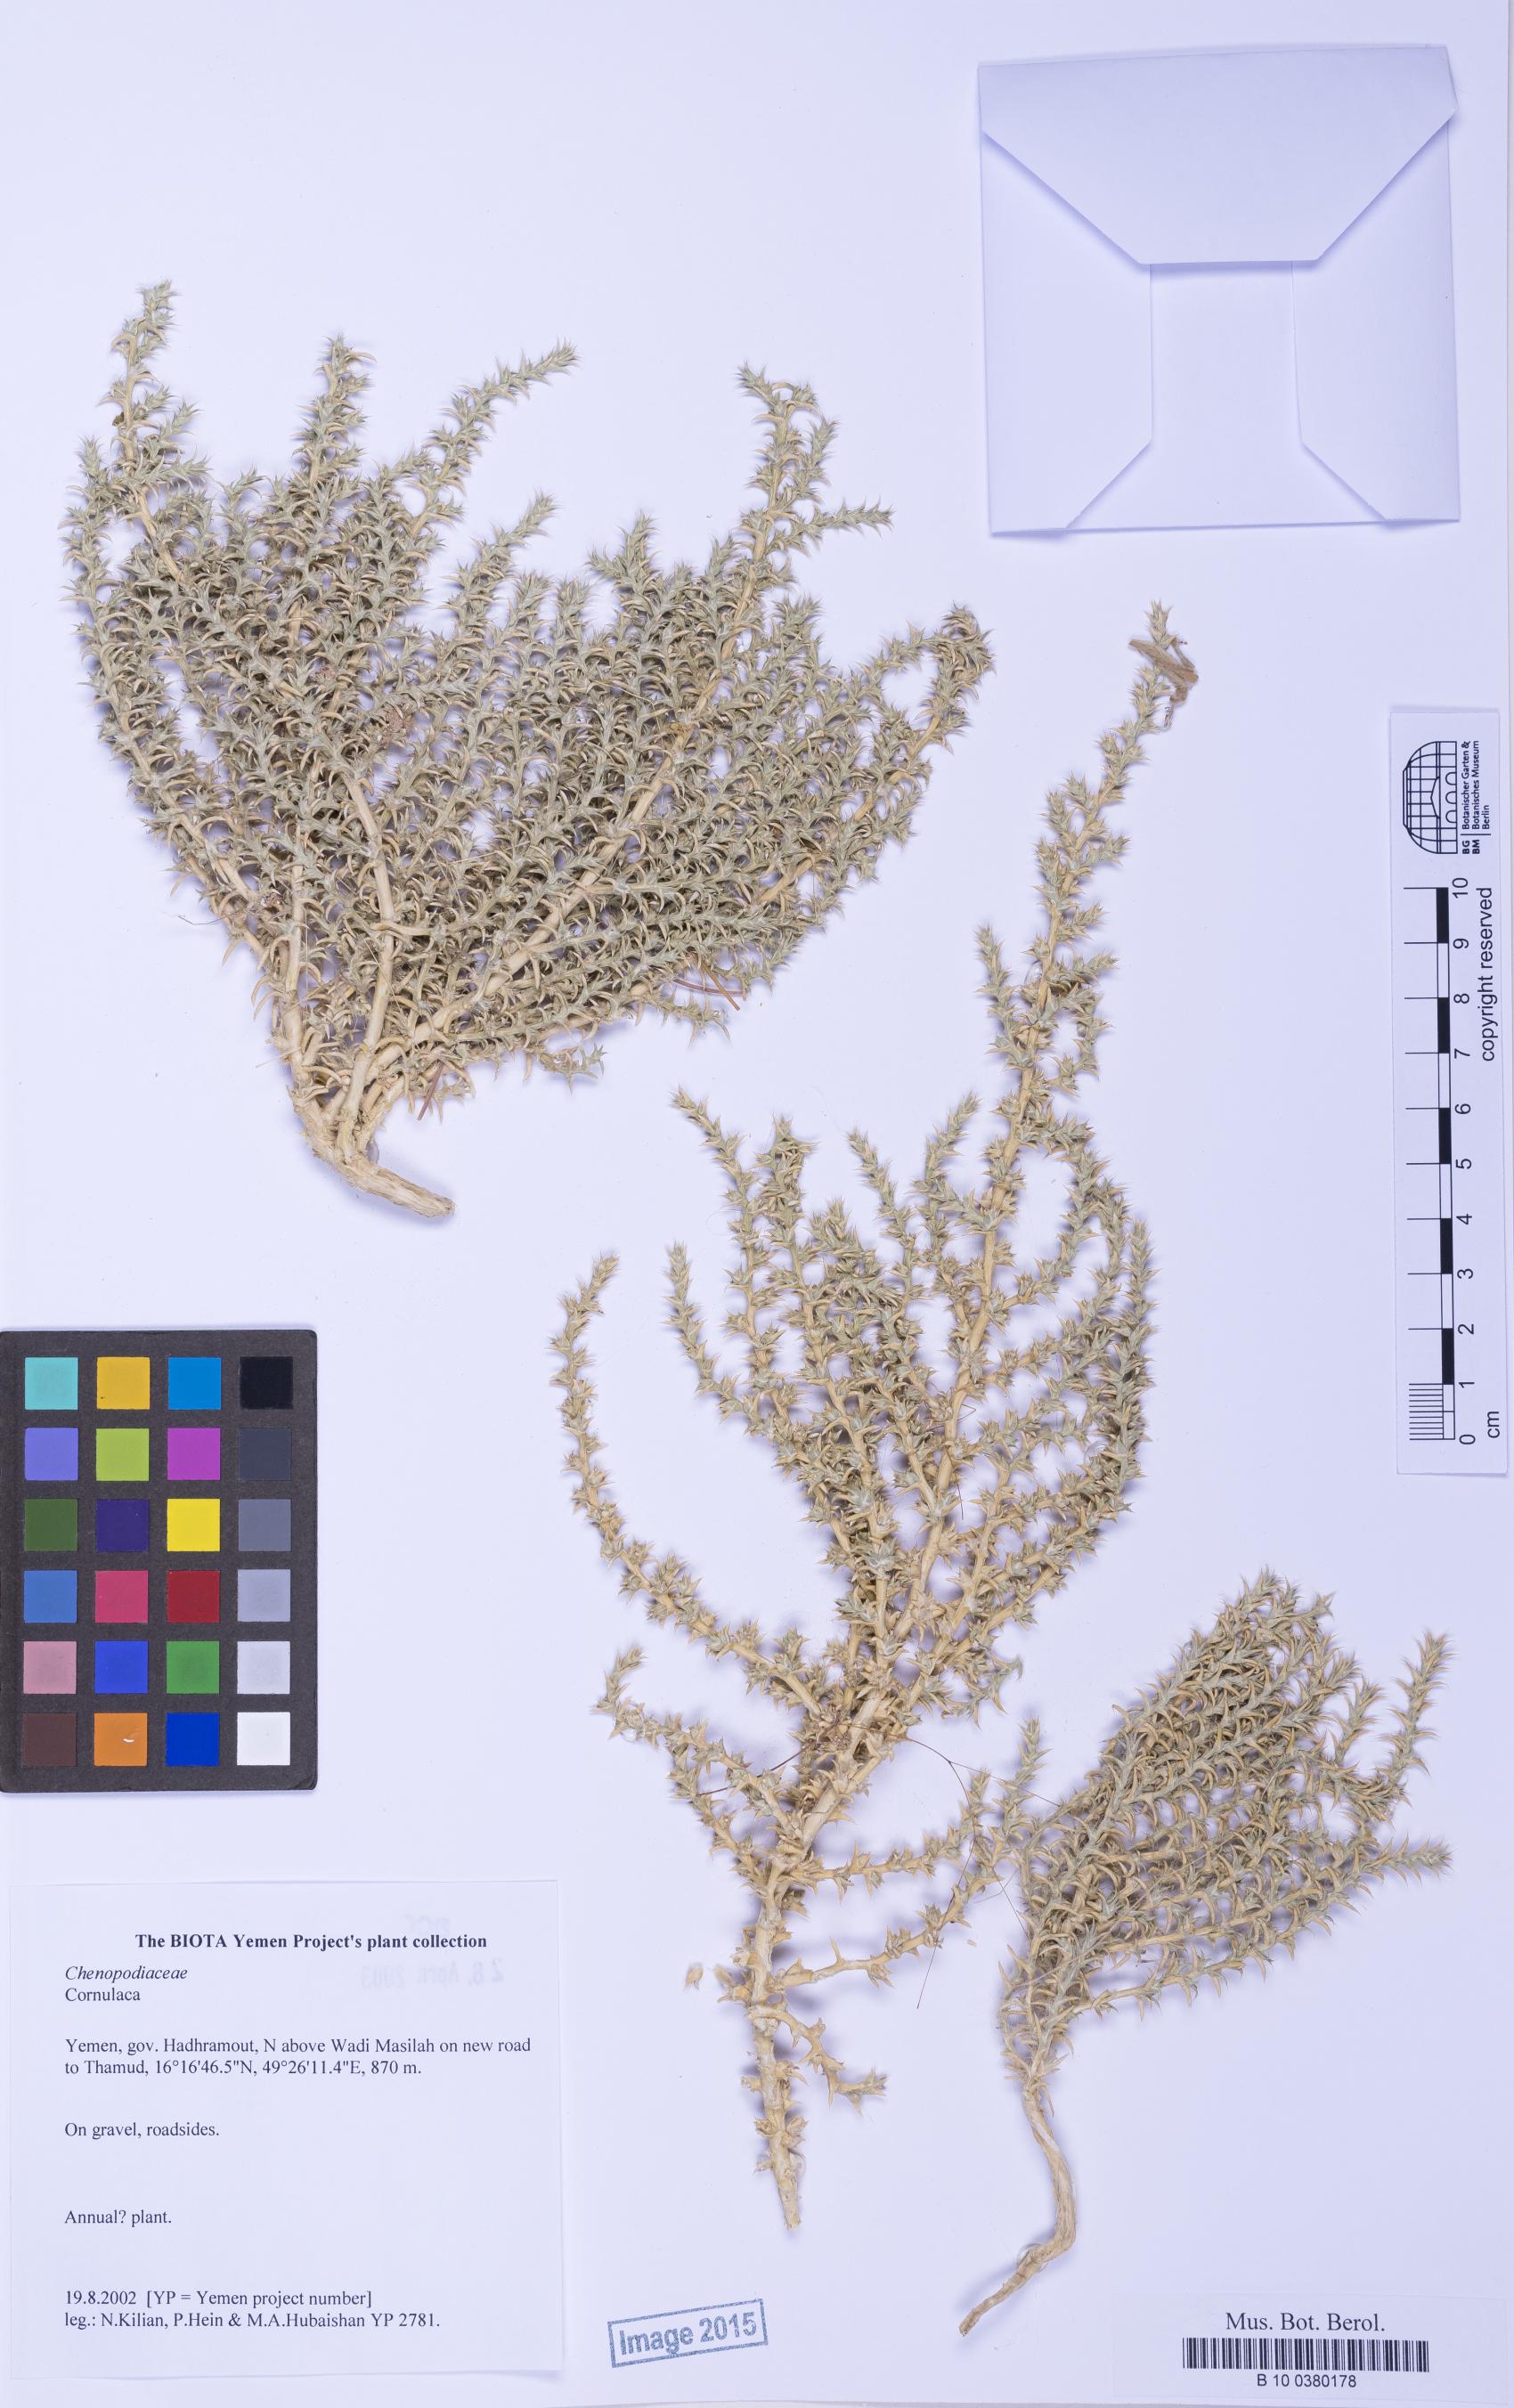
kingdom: Plantae
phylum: Tracheophyta
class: Magnoliopsida
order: Caryophyllales
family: Amaranthaceae
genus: Cornulaca
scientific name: Cornulaca
